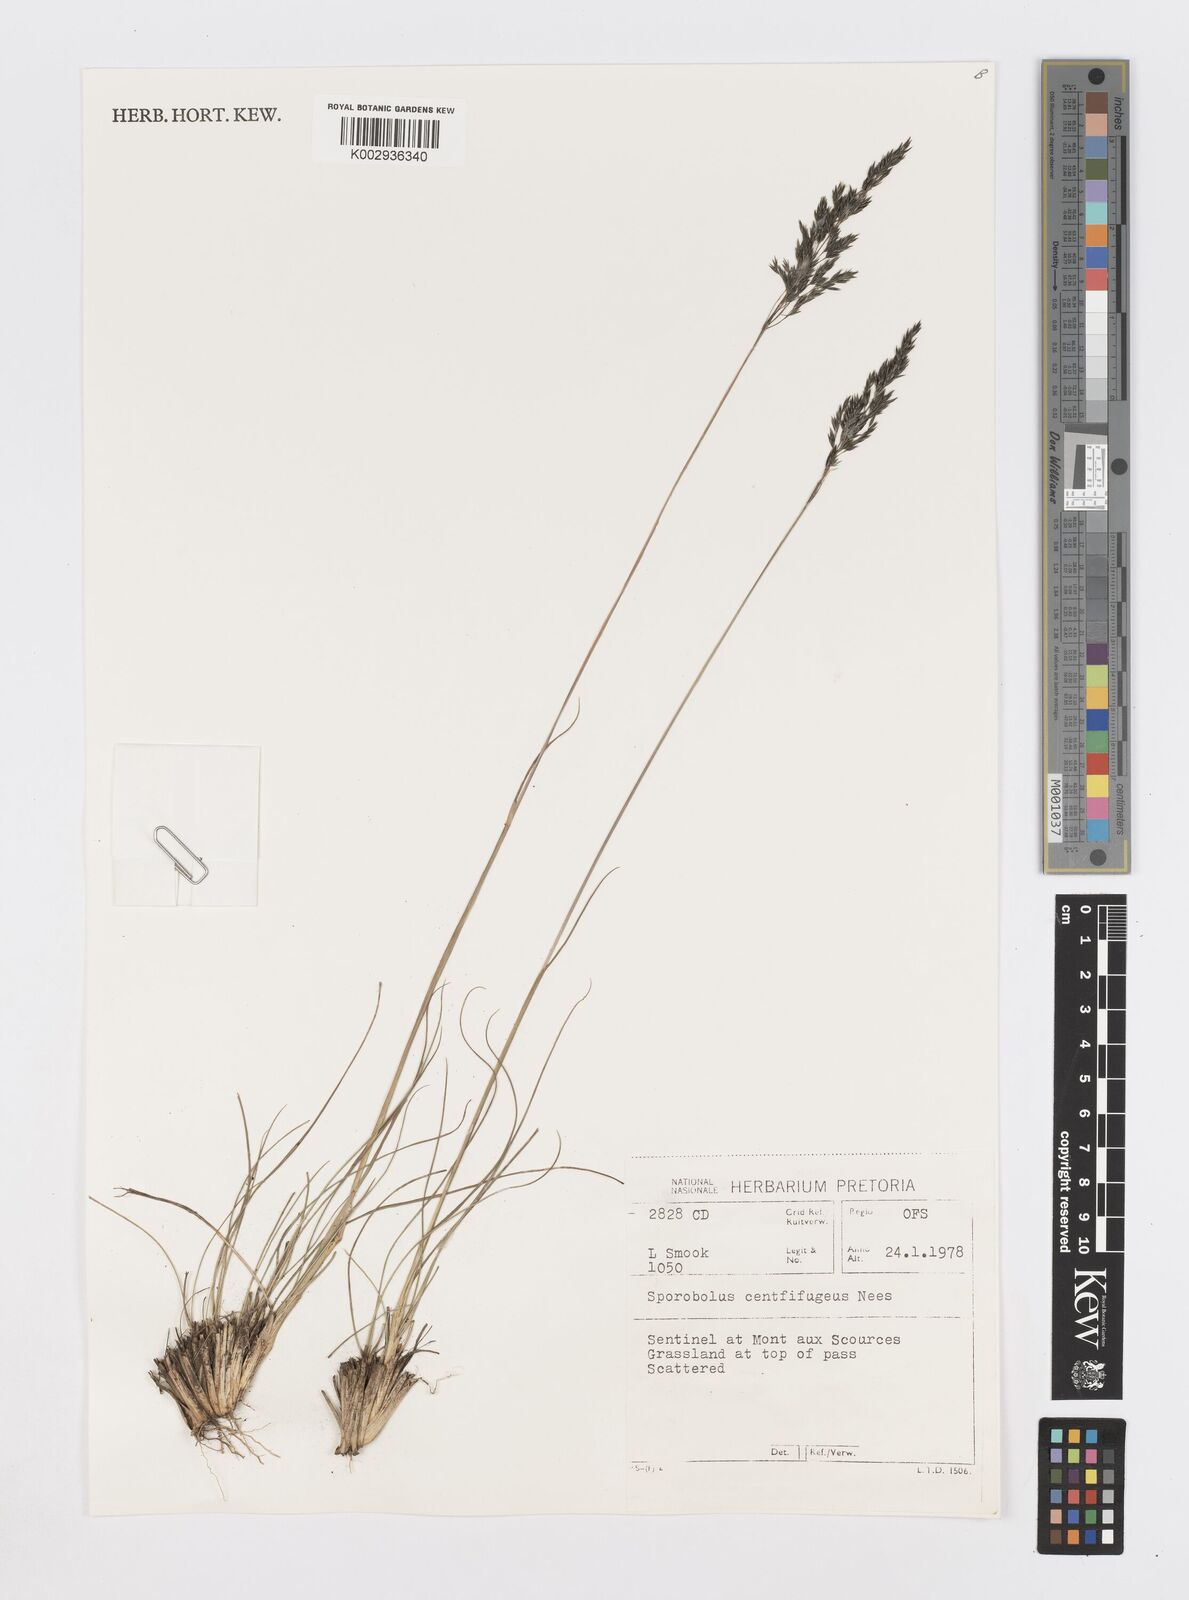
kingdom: Plantae
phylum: Tracheophyta
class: Liliopsida
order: Poales
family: Poaceae
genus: Sporobolus
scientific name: Sporobolus centrifugus
